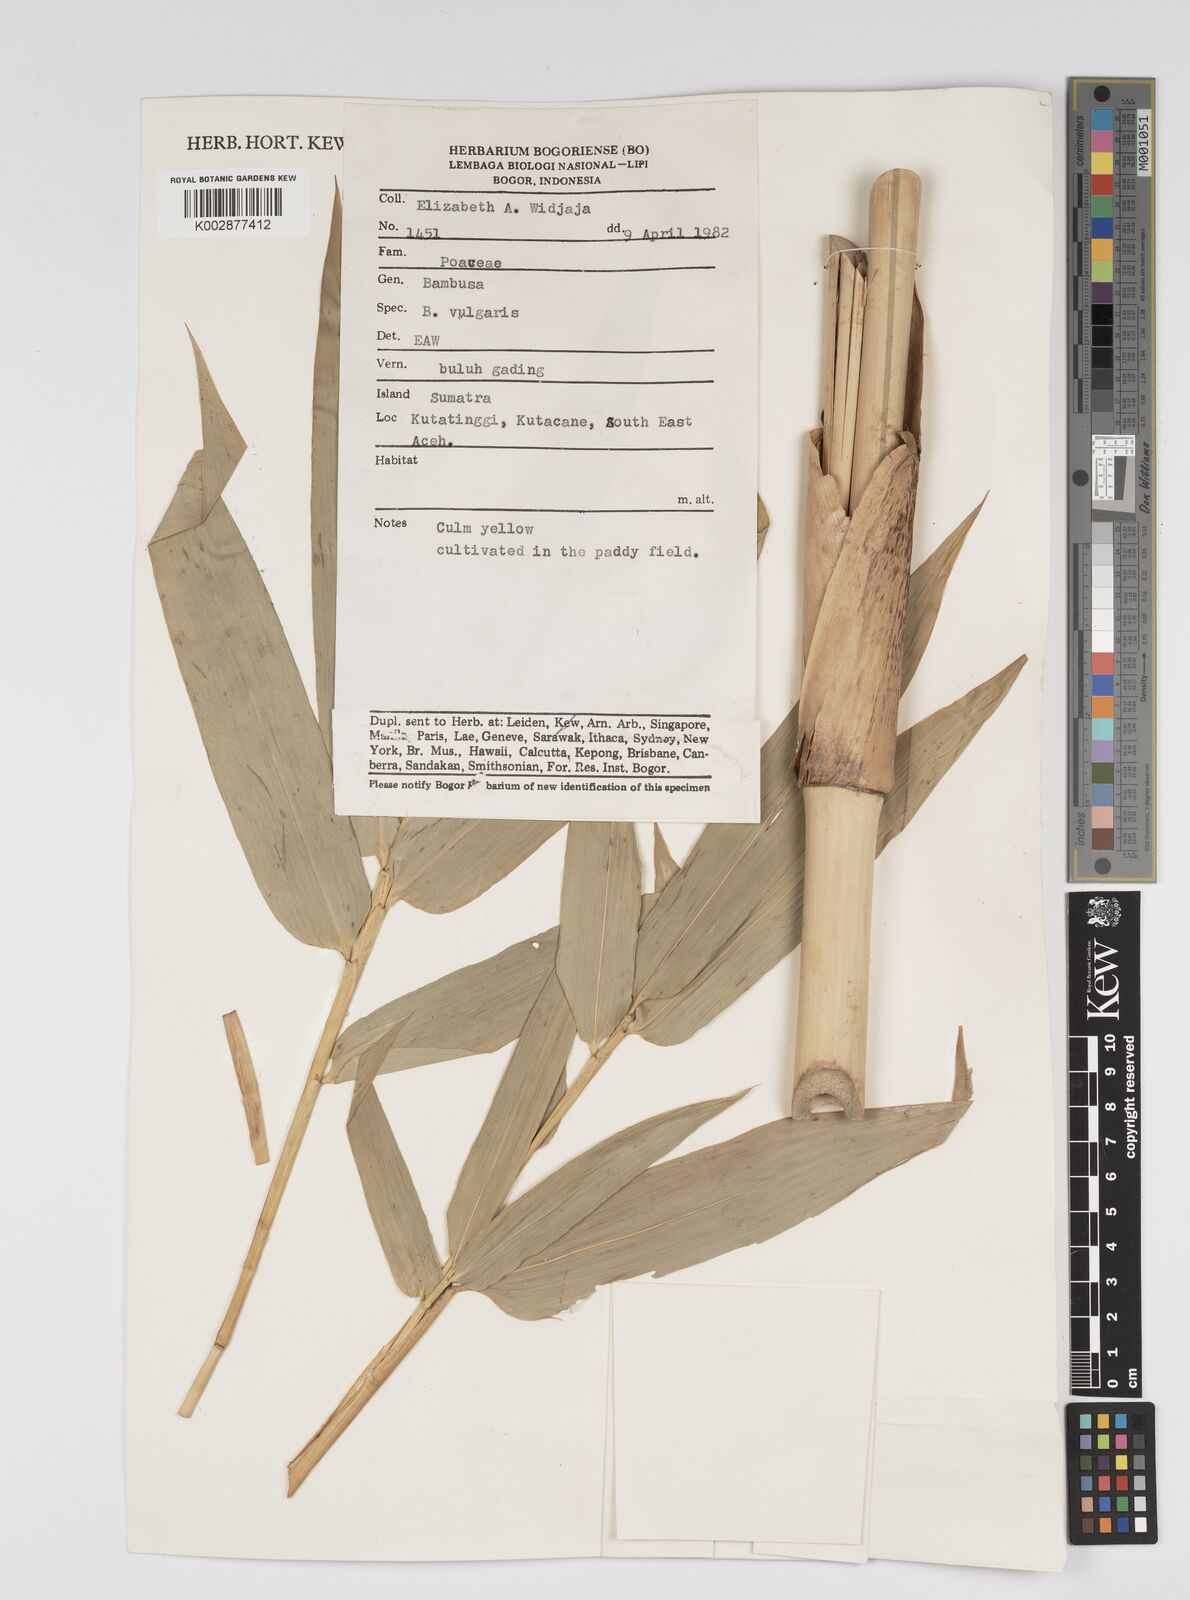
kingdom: Plantae
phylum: Tracheophyta
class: Liliopsida
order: Poales
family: Poaceae
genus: Bambusa
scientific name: Bambusa vulgaris
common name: Common bamboo
